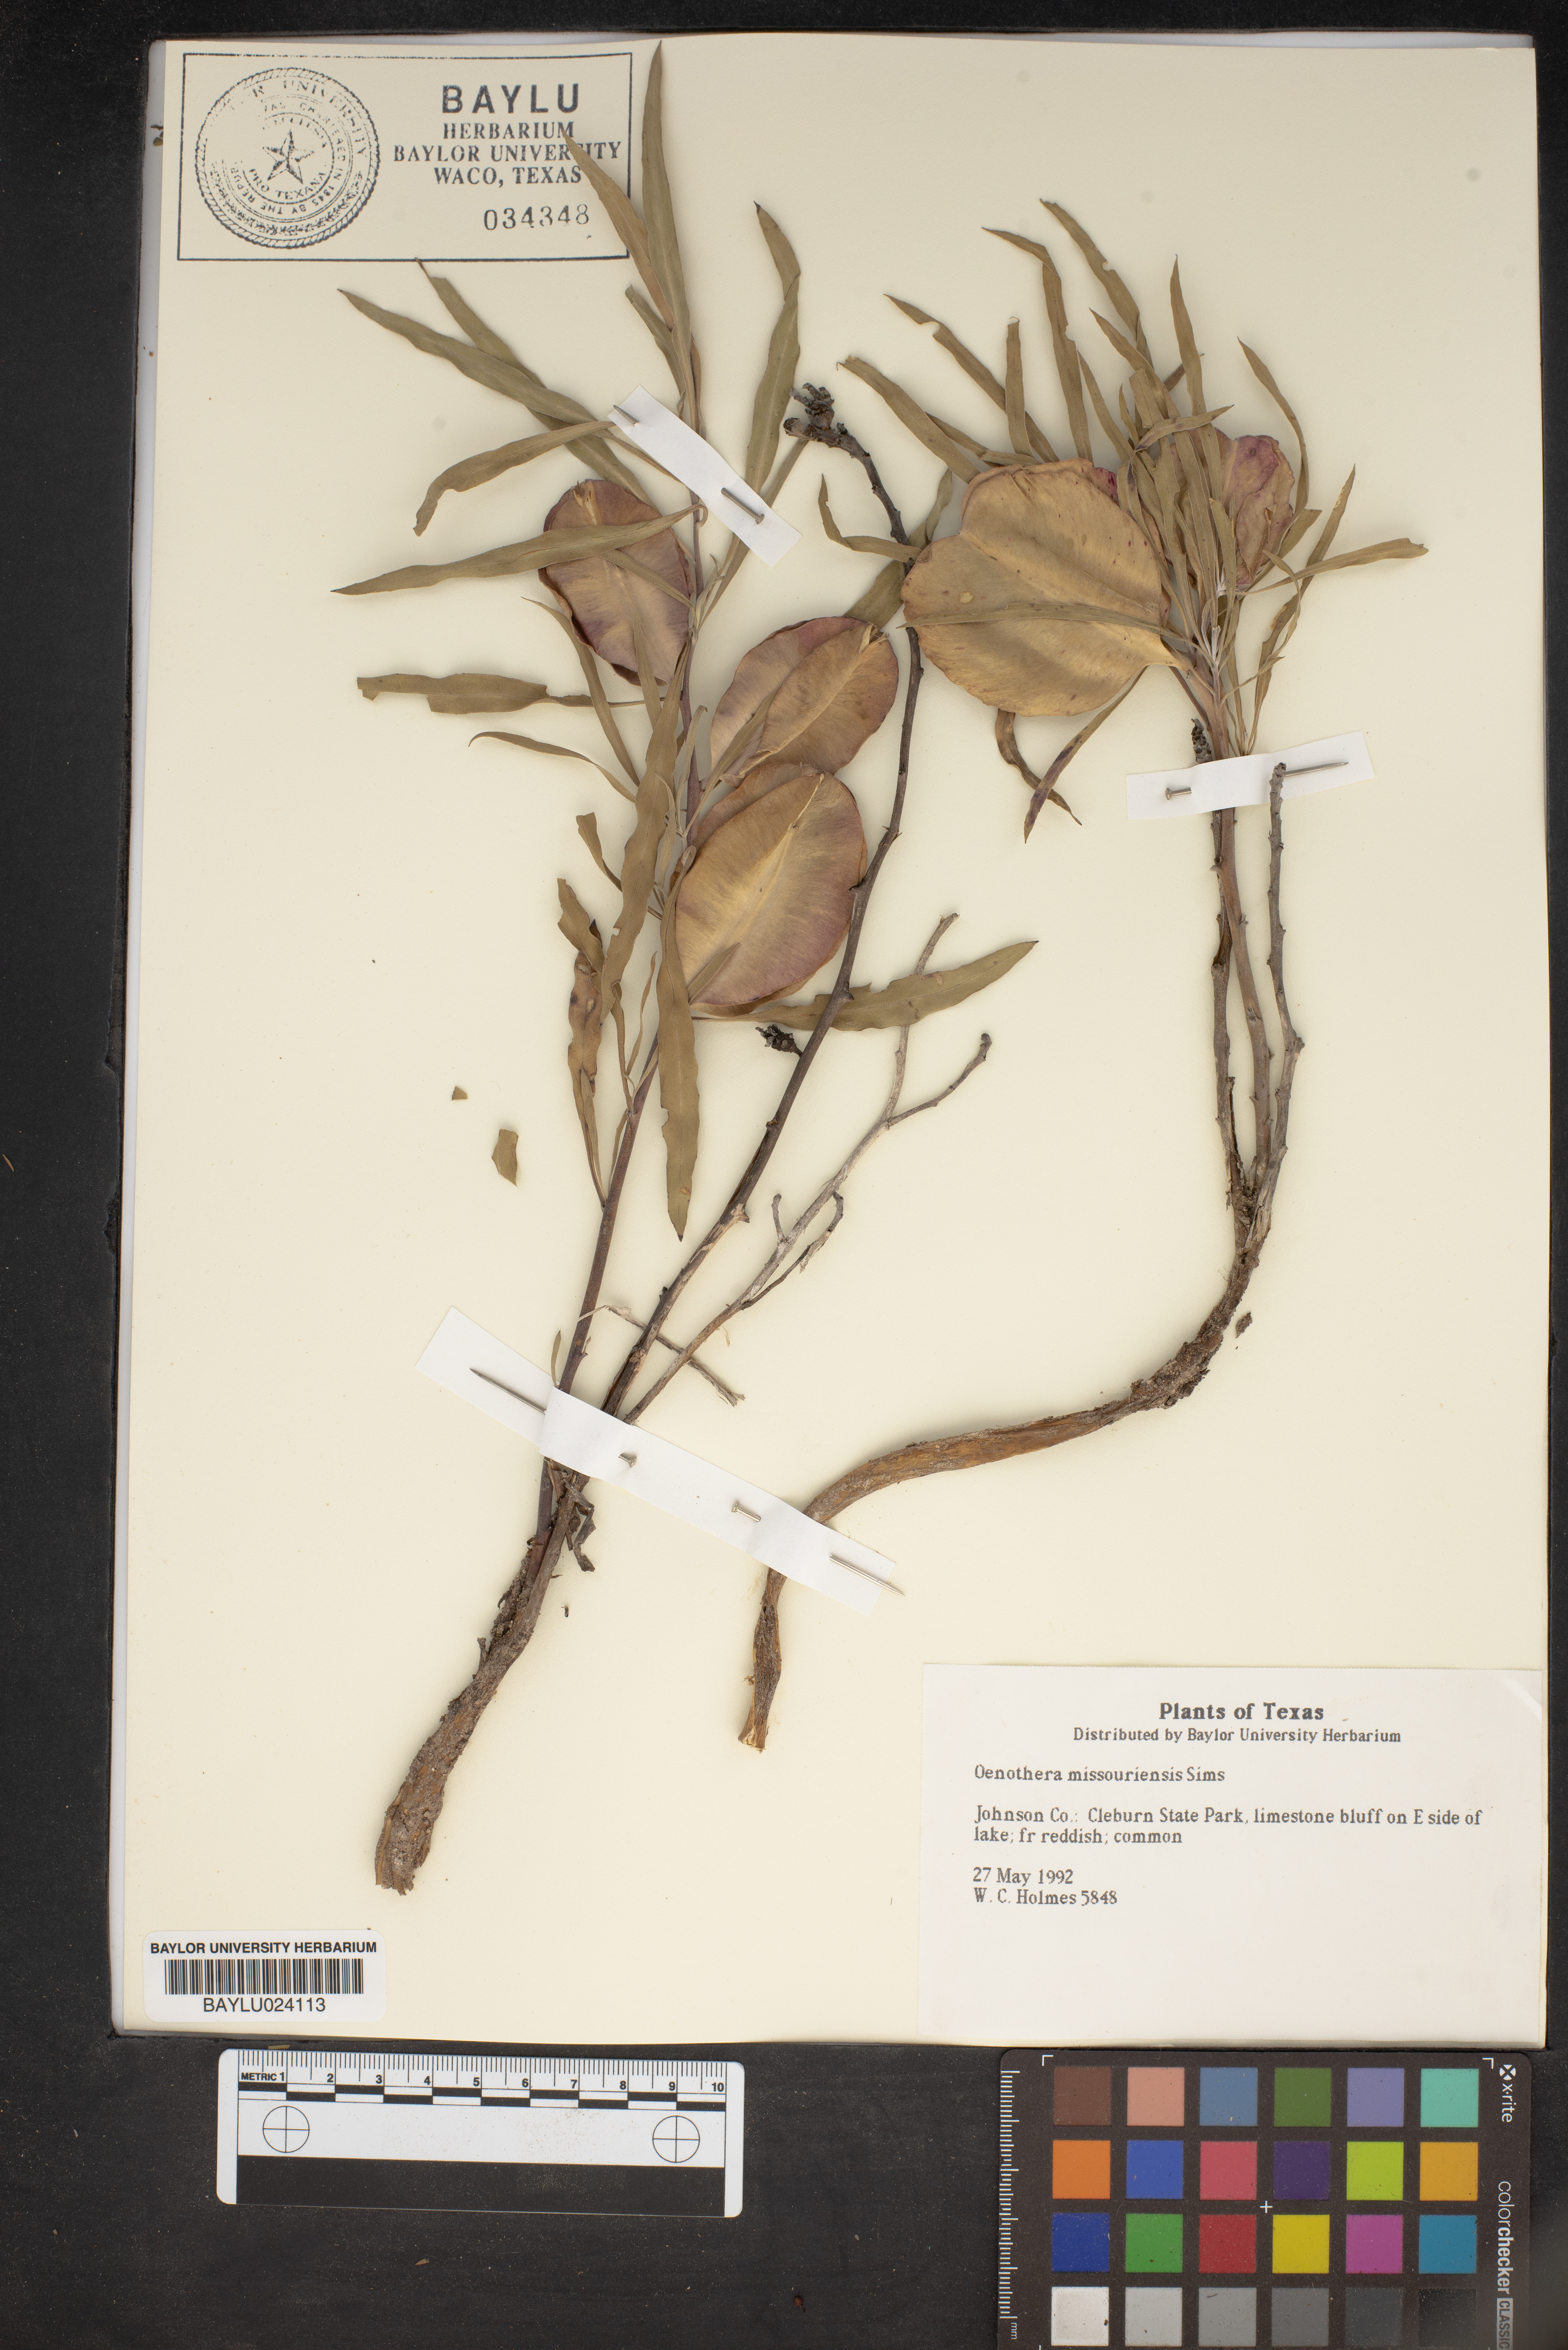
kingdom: Plantae
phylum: Tracheophyta
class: Magnoliopsida
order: Myrtales
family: Onagraceae
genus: Oenothera
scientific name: Oenothera macrocarpa
